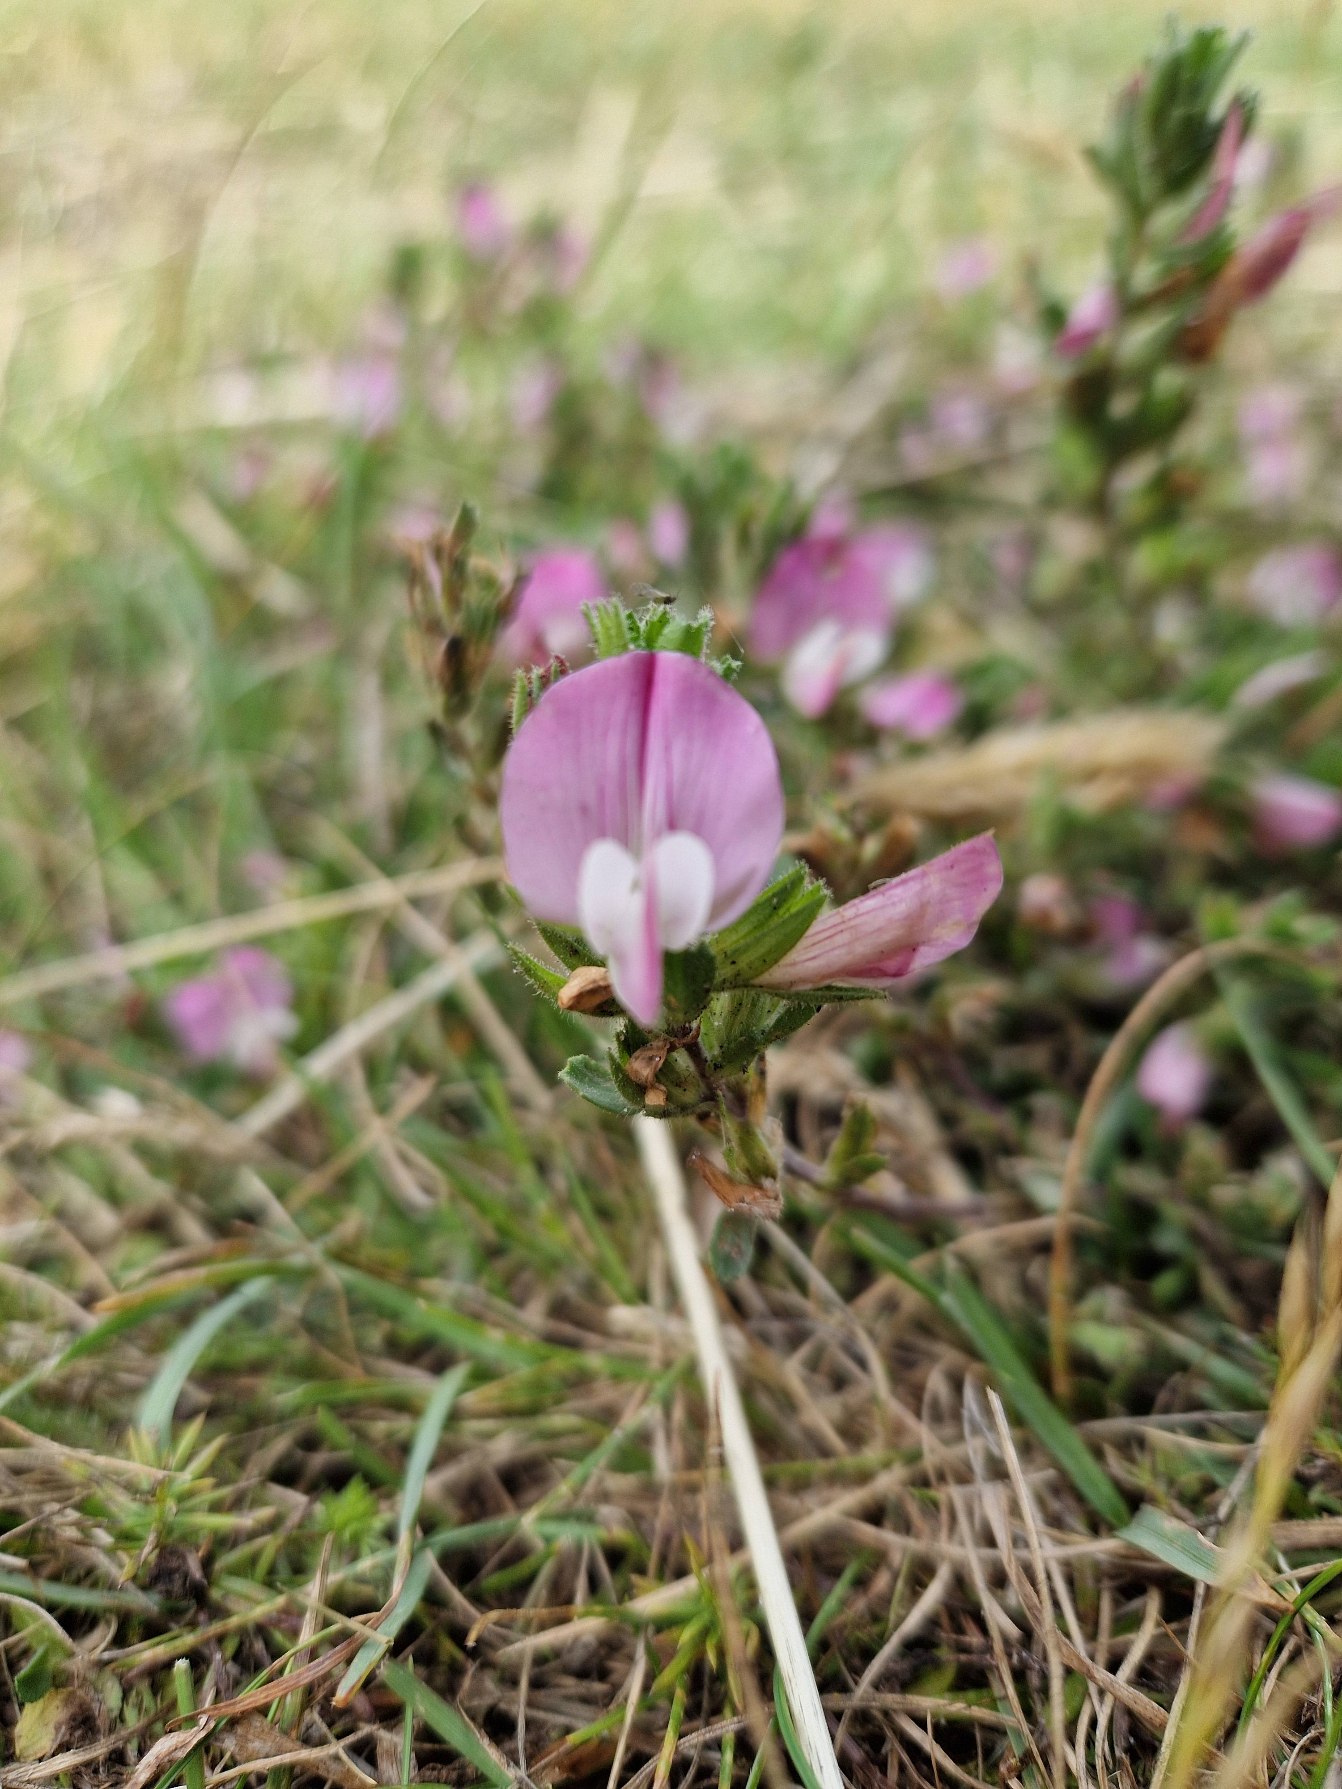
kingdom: Plantae
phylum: Tracheophyta
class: Magnoliopsida
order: Fabales
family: Fabaceae
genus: Ononis
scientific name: Ononis spinosa
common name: Mark-krageklo
